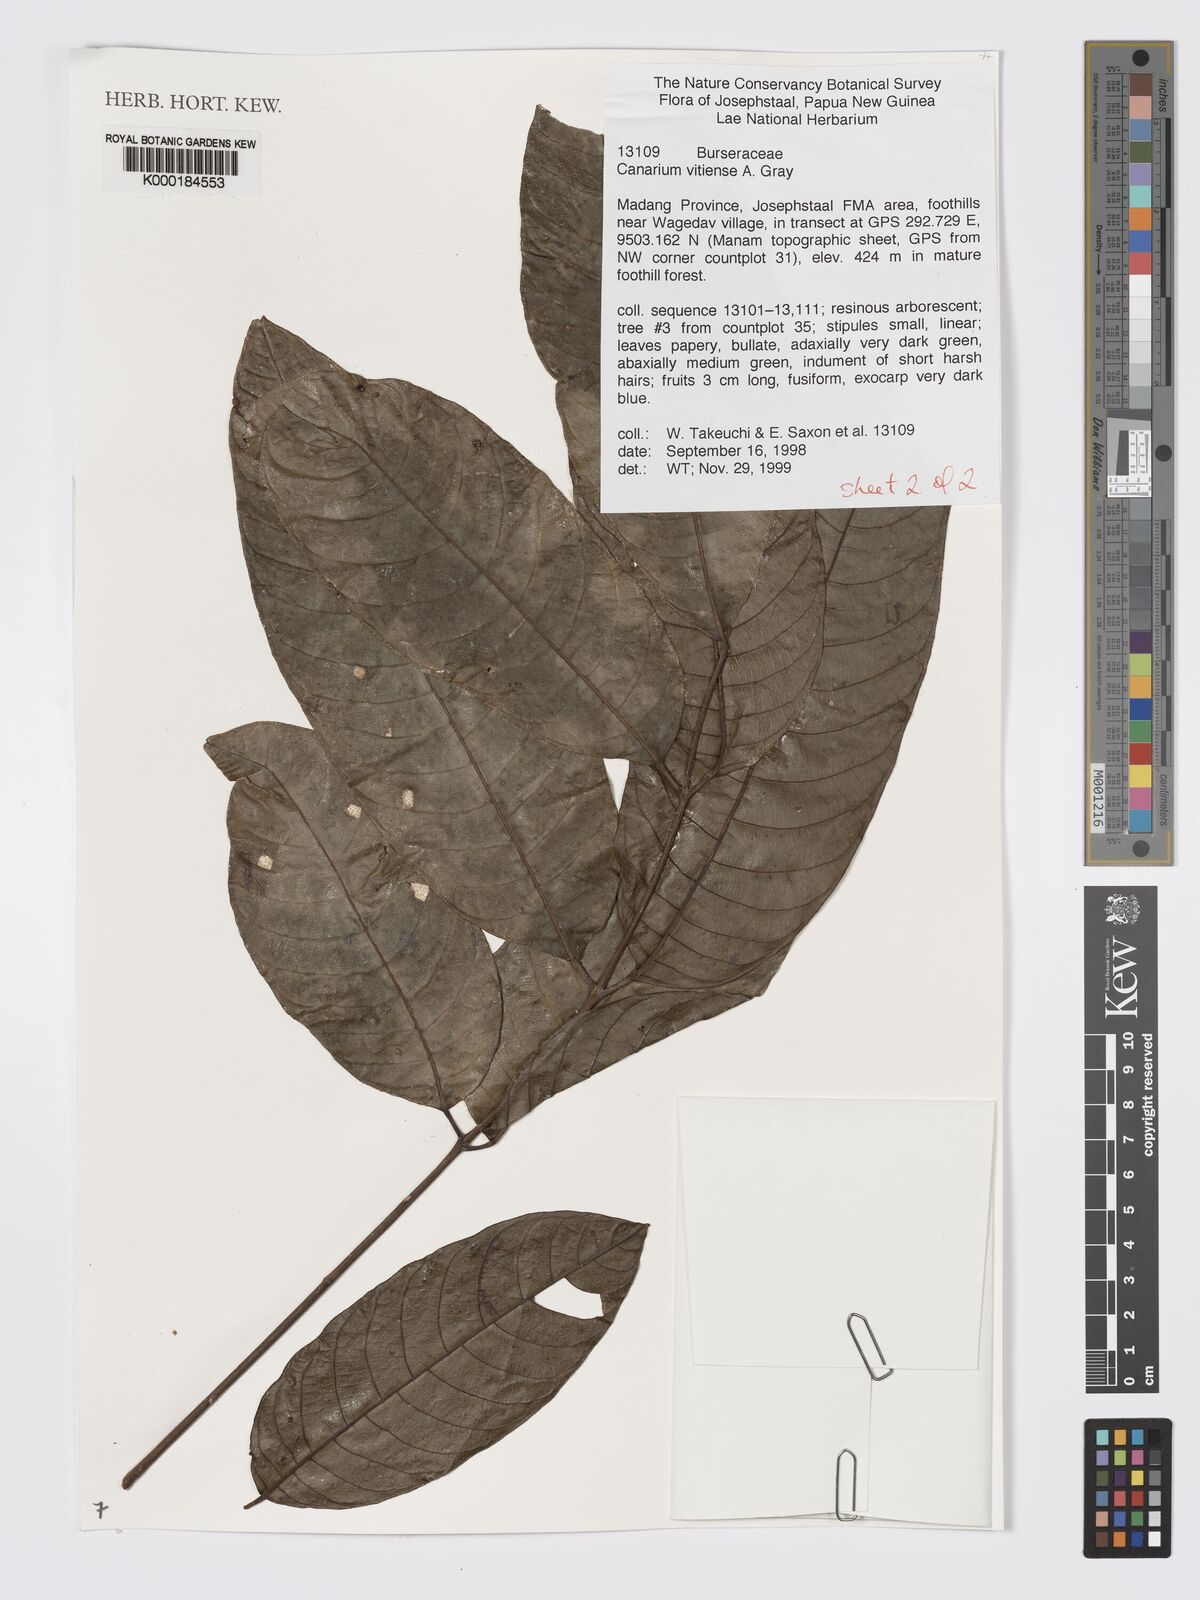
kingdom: Plantae
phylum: Tracheophyta
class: Magnoliopsida
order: Sapindales
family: Burseraceae
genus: Canarium
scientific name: Canarium asperum
